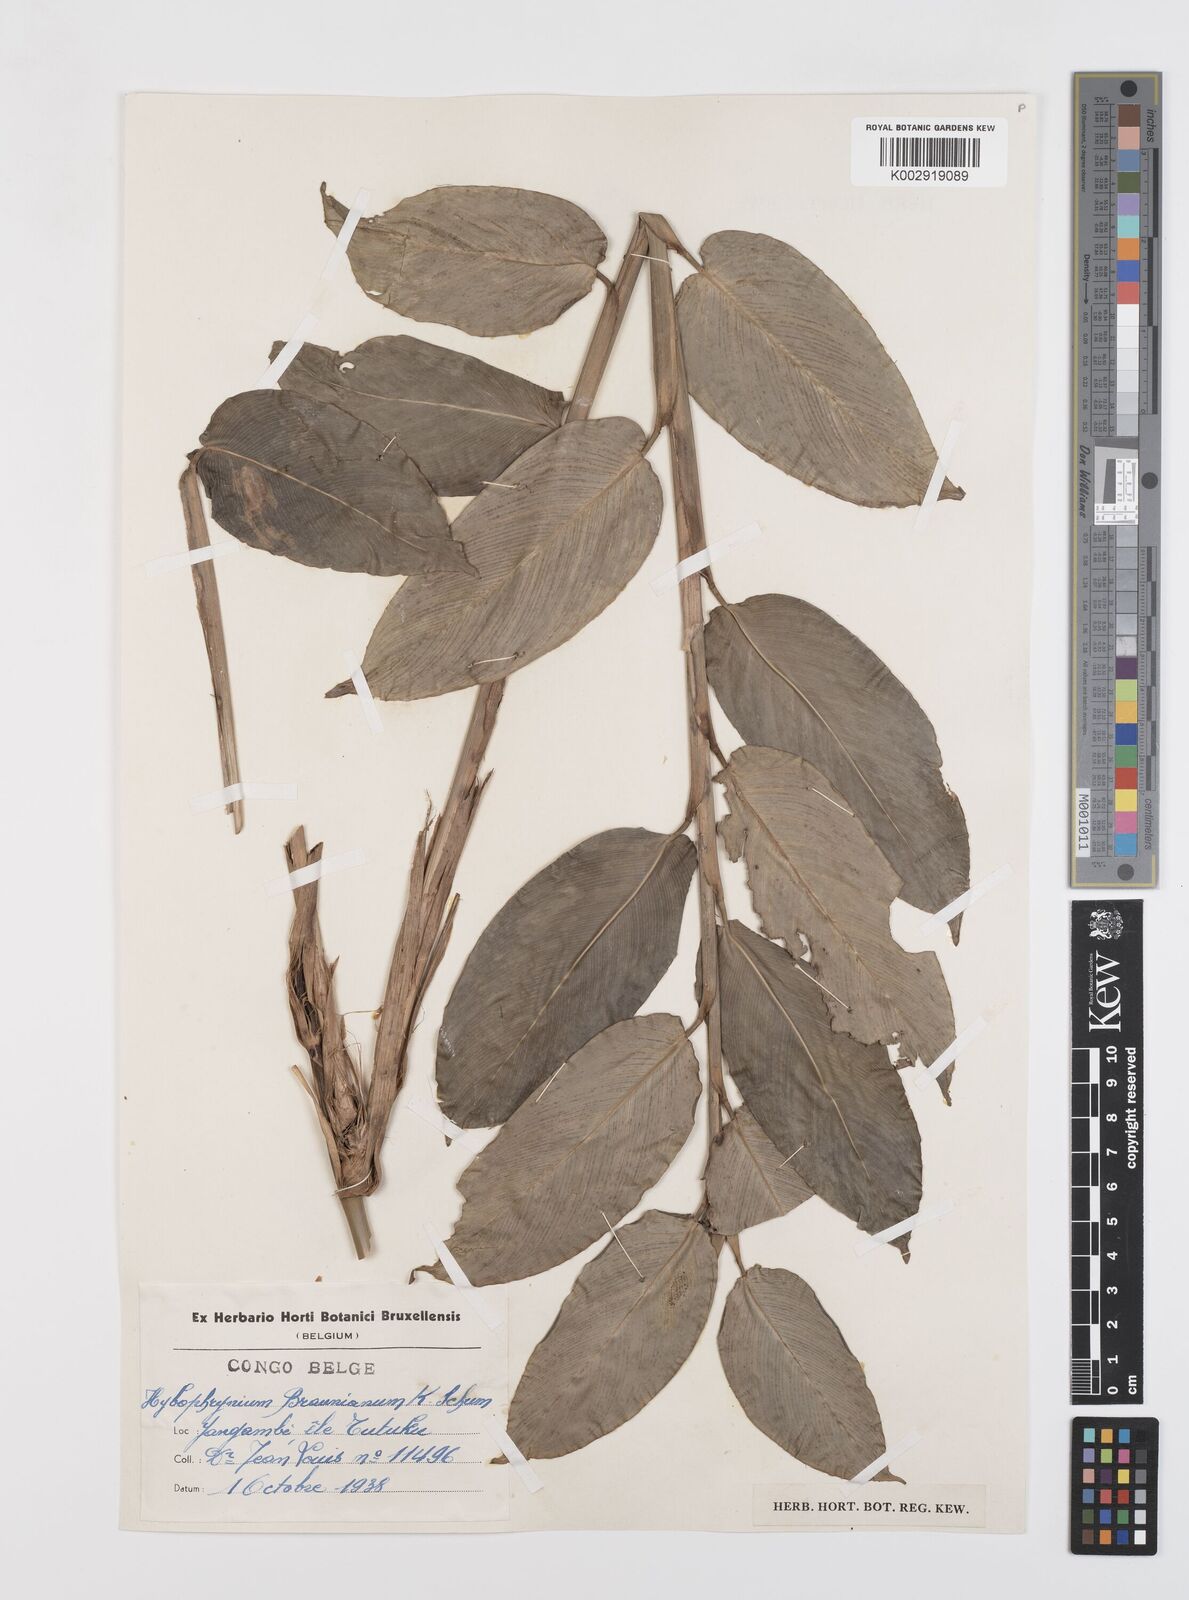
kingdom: Plantae
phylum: Tracheophyta
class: Liliopsida
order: Zingiberales
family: Marantaceae
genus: Trachyphrynium
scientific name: Trachyphrynium braunianum
